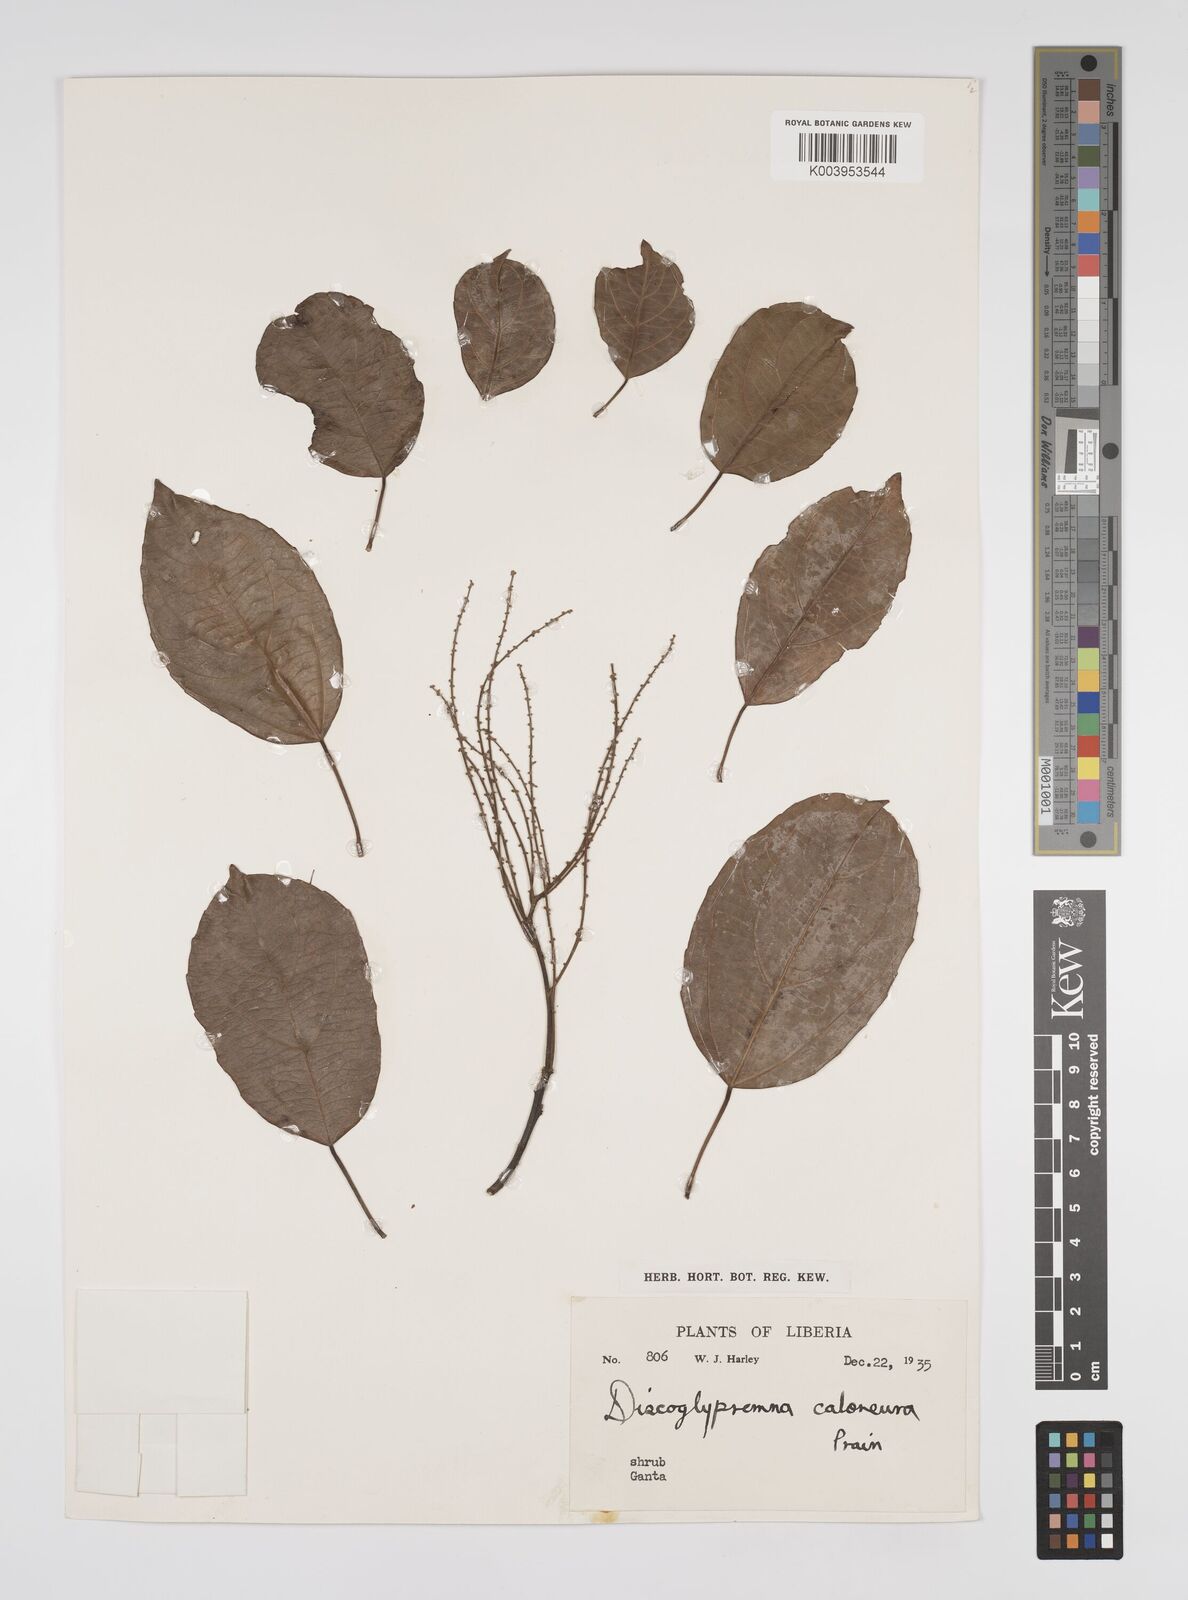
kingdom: Plantae
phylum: Tracheophyta
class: Magnoliopsida
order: Malpighiales
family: Euphorbiaceae
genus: Discoglypremna
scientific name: Discoglypremna caloneura
